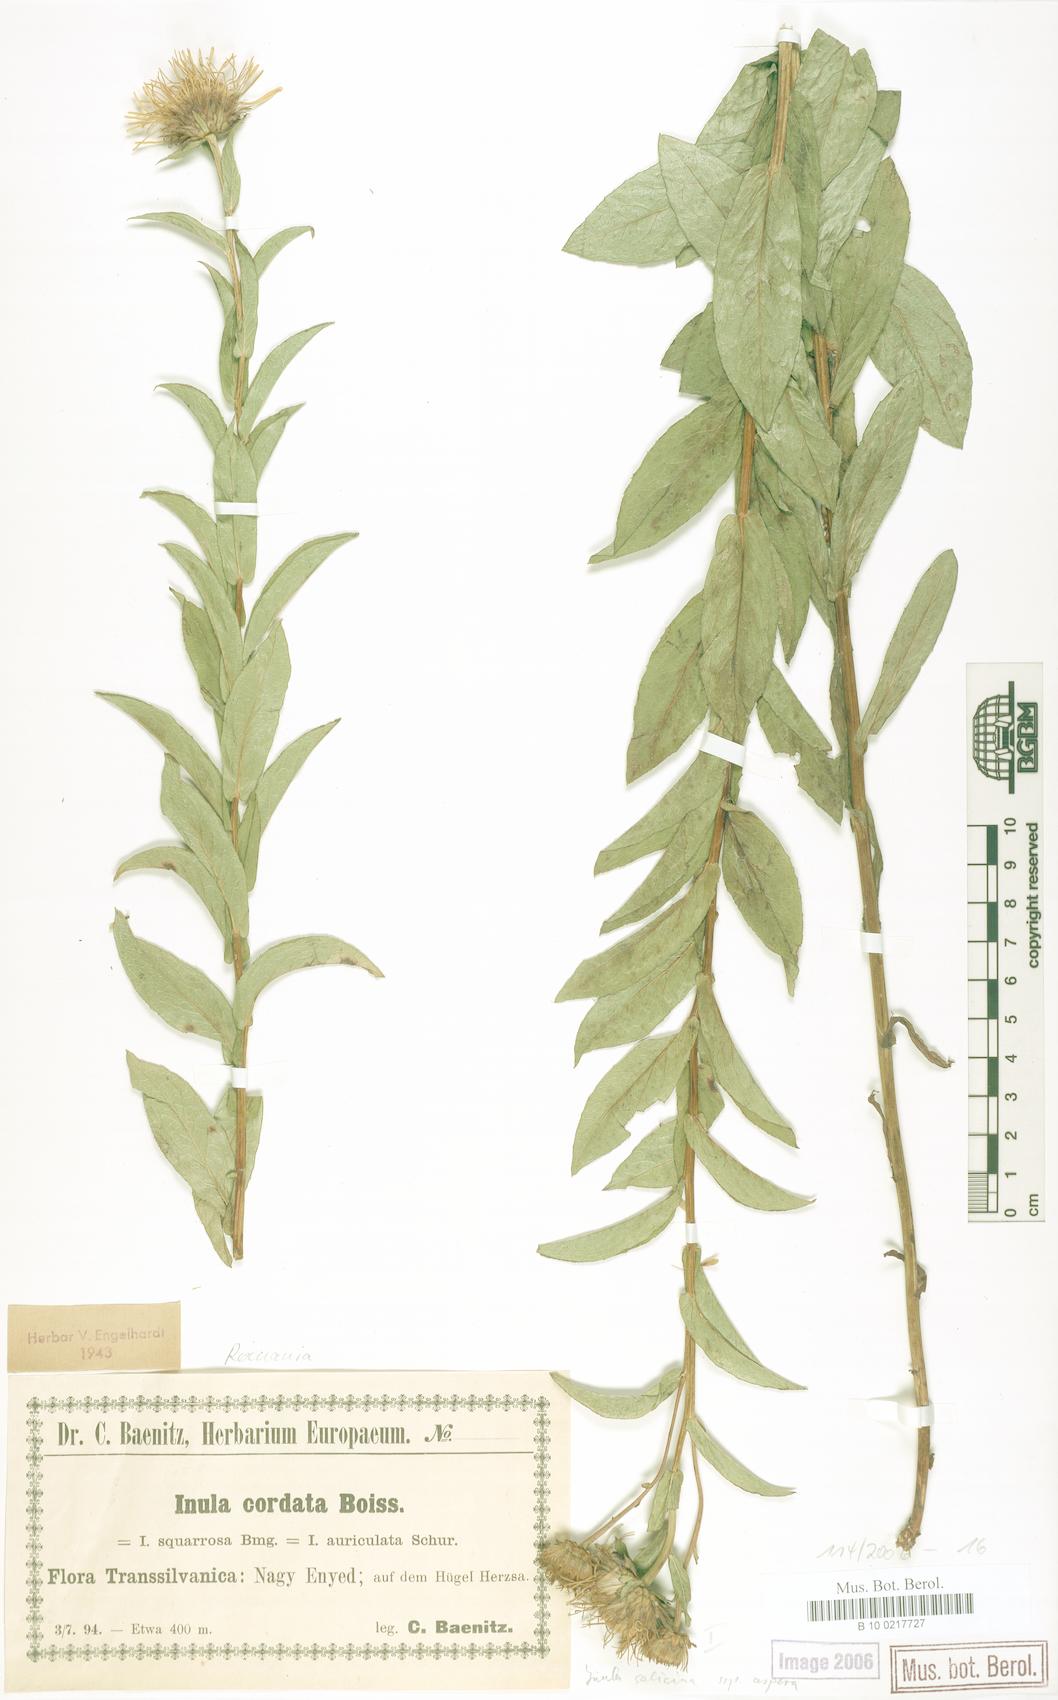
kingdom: Plantae
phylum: Tracheophyta
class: Magnoliopsida
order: Asterales
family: Asteraceae
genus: Pentanema
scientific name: Pentanema salicinum
